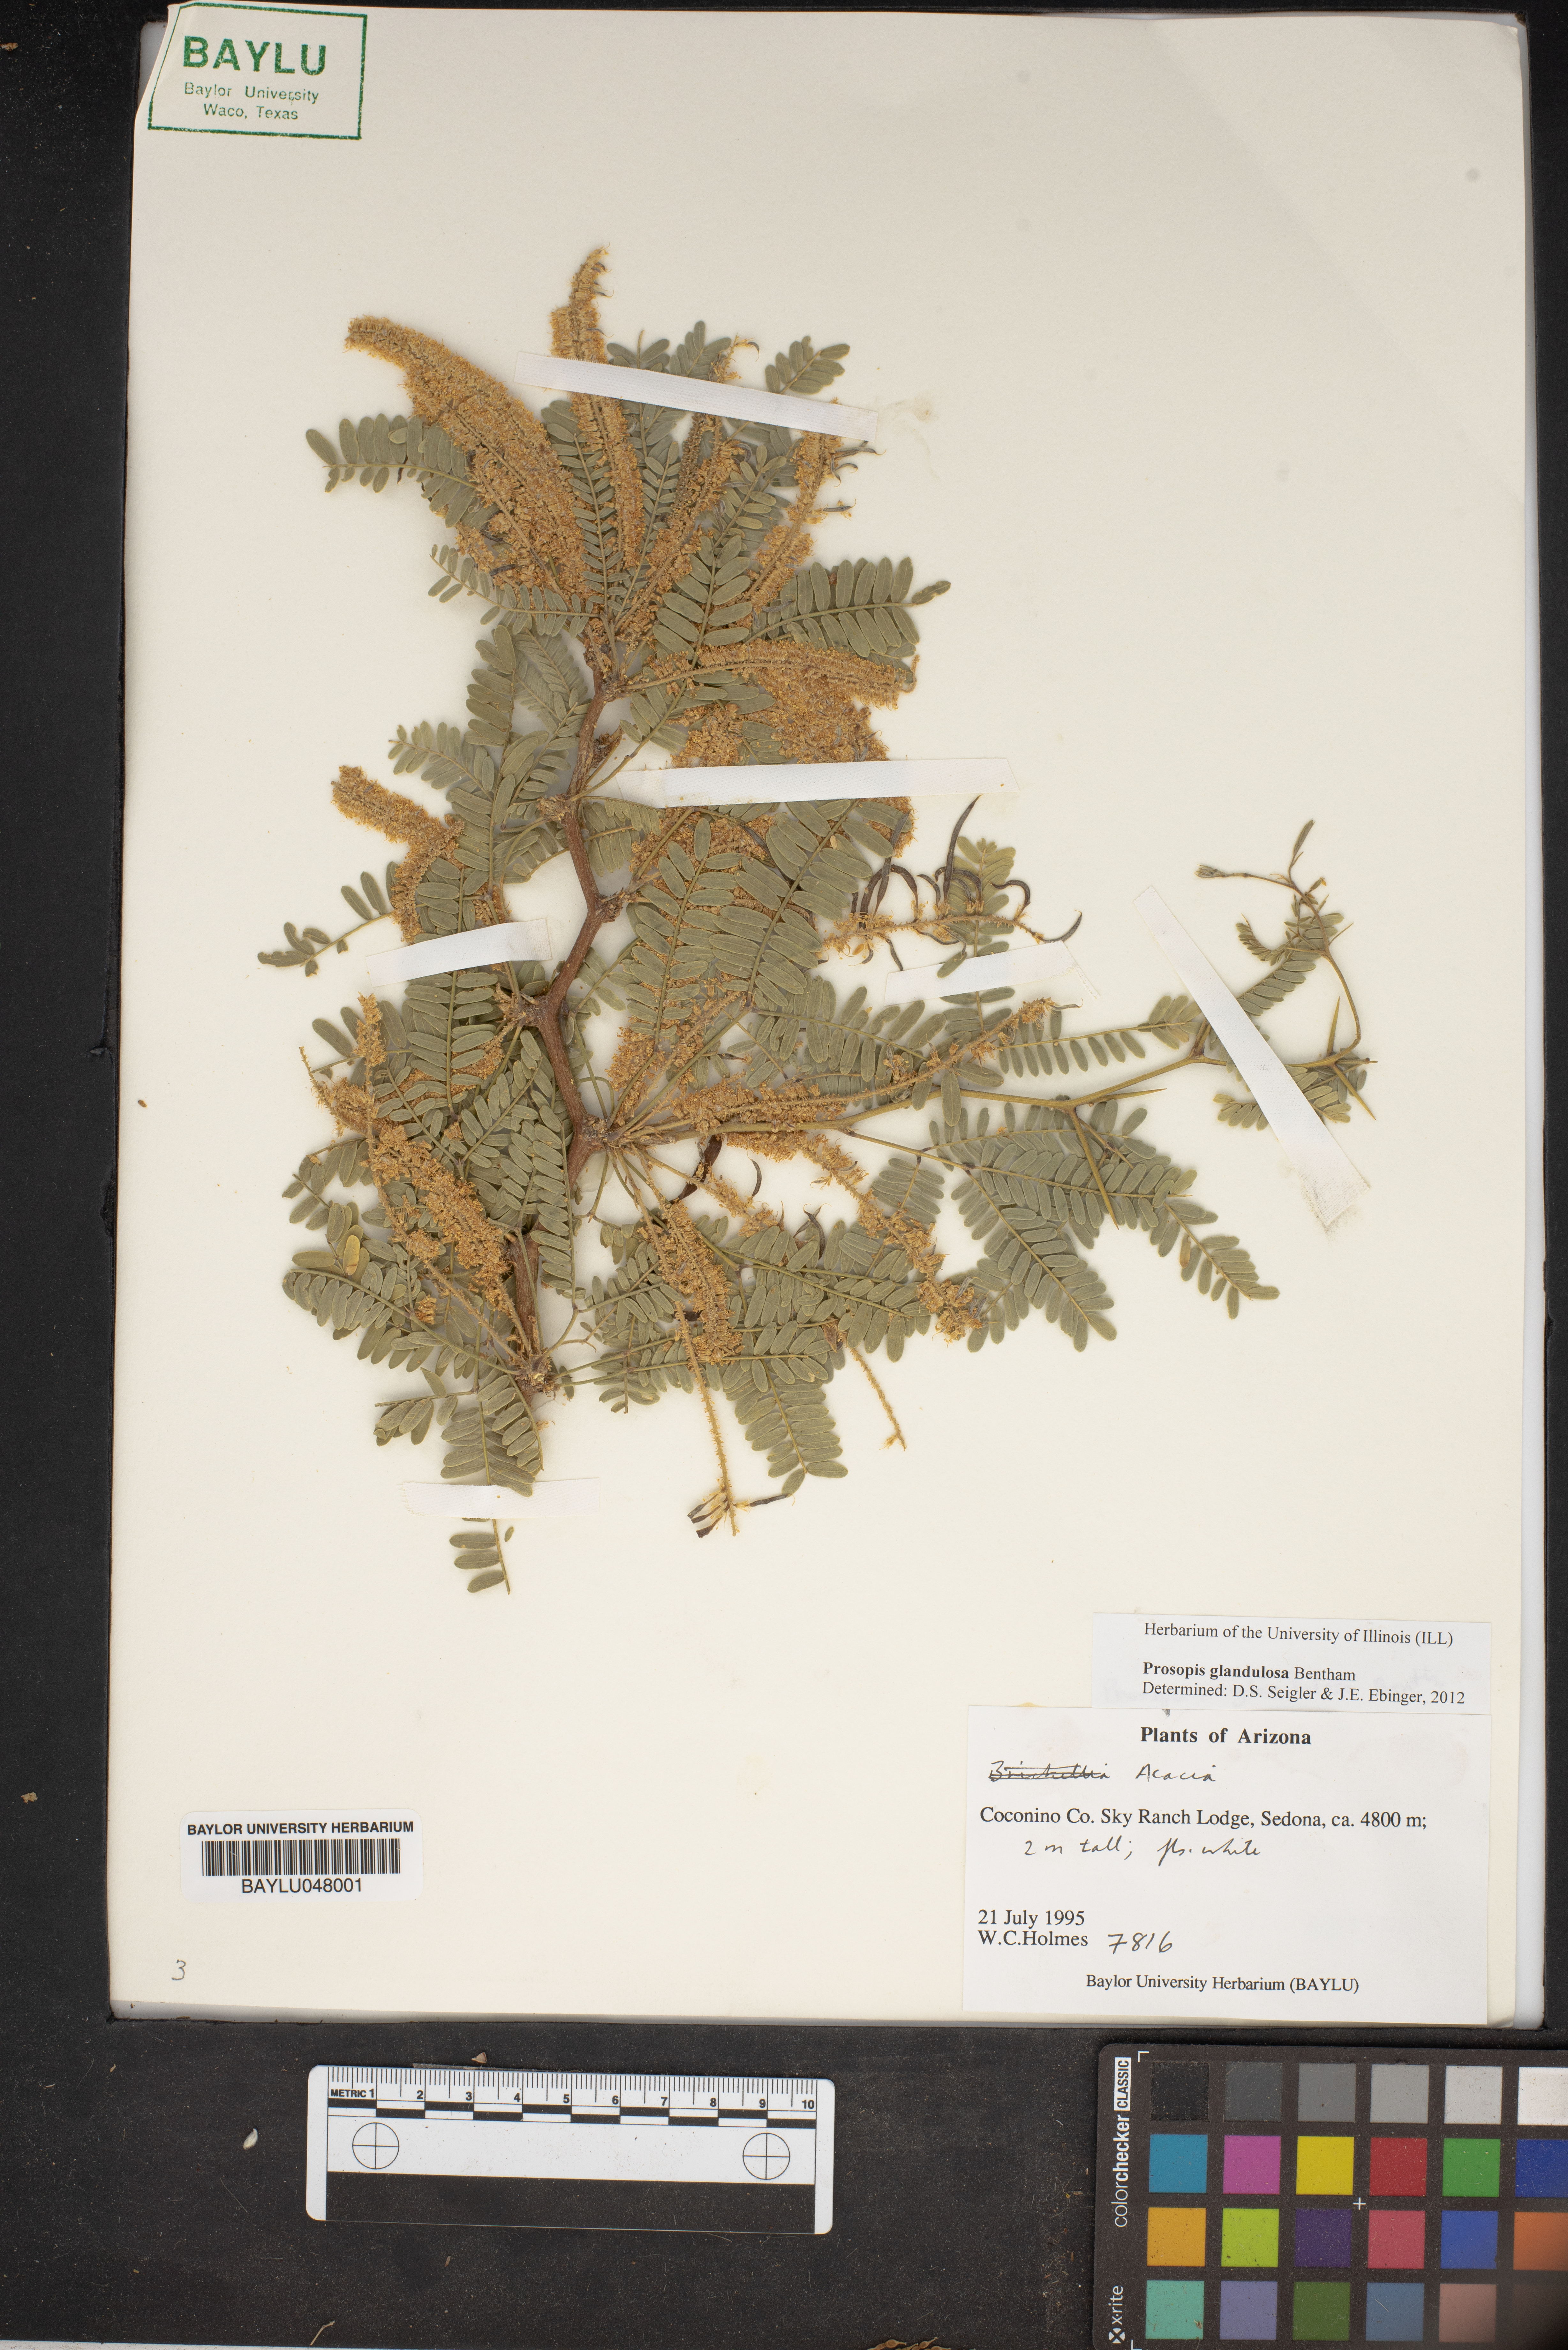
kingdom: Plantae
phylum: Tracheophyta
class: Magnoliopsida
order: Fabales
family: Fabaceae
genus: Prosopis
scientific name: Prosopis glandulosa
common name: Honey mesquite
